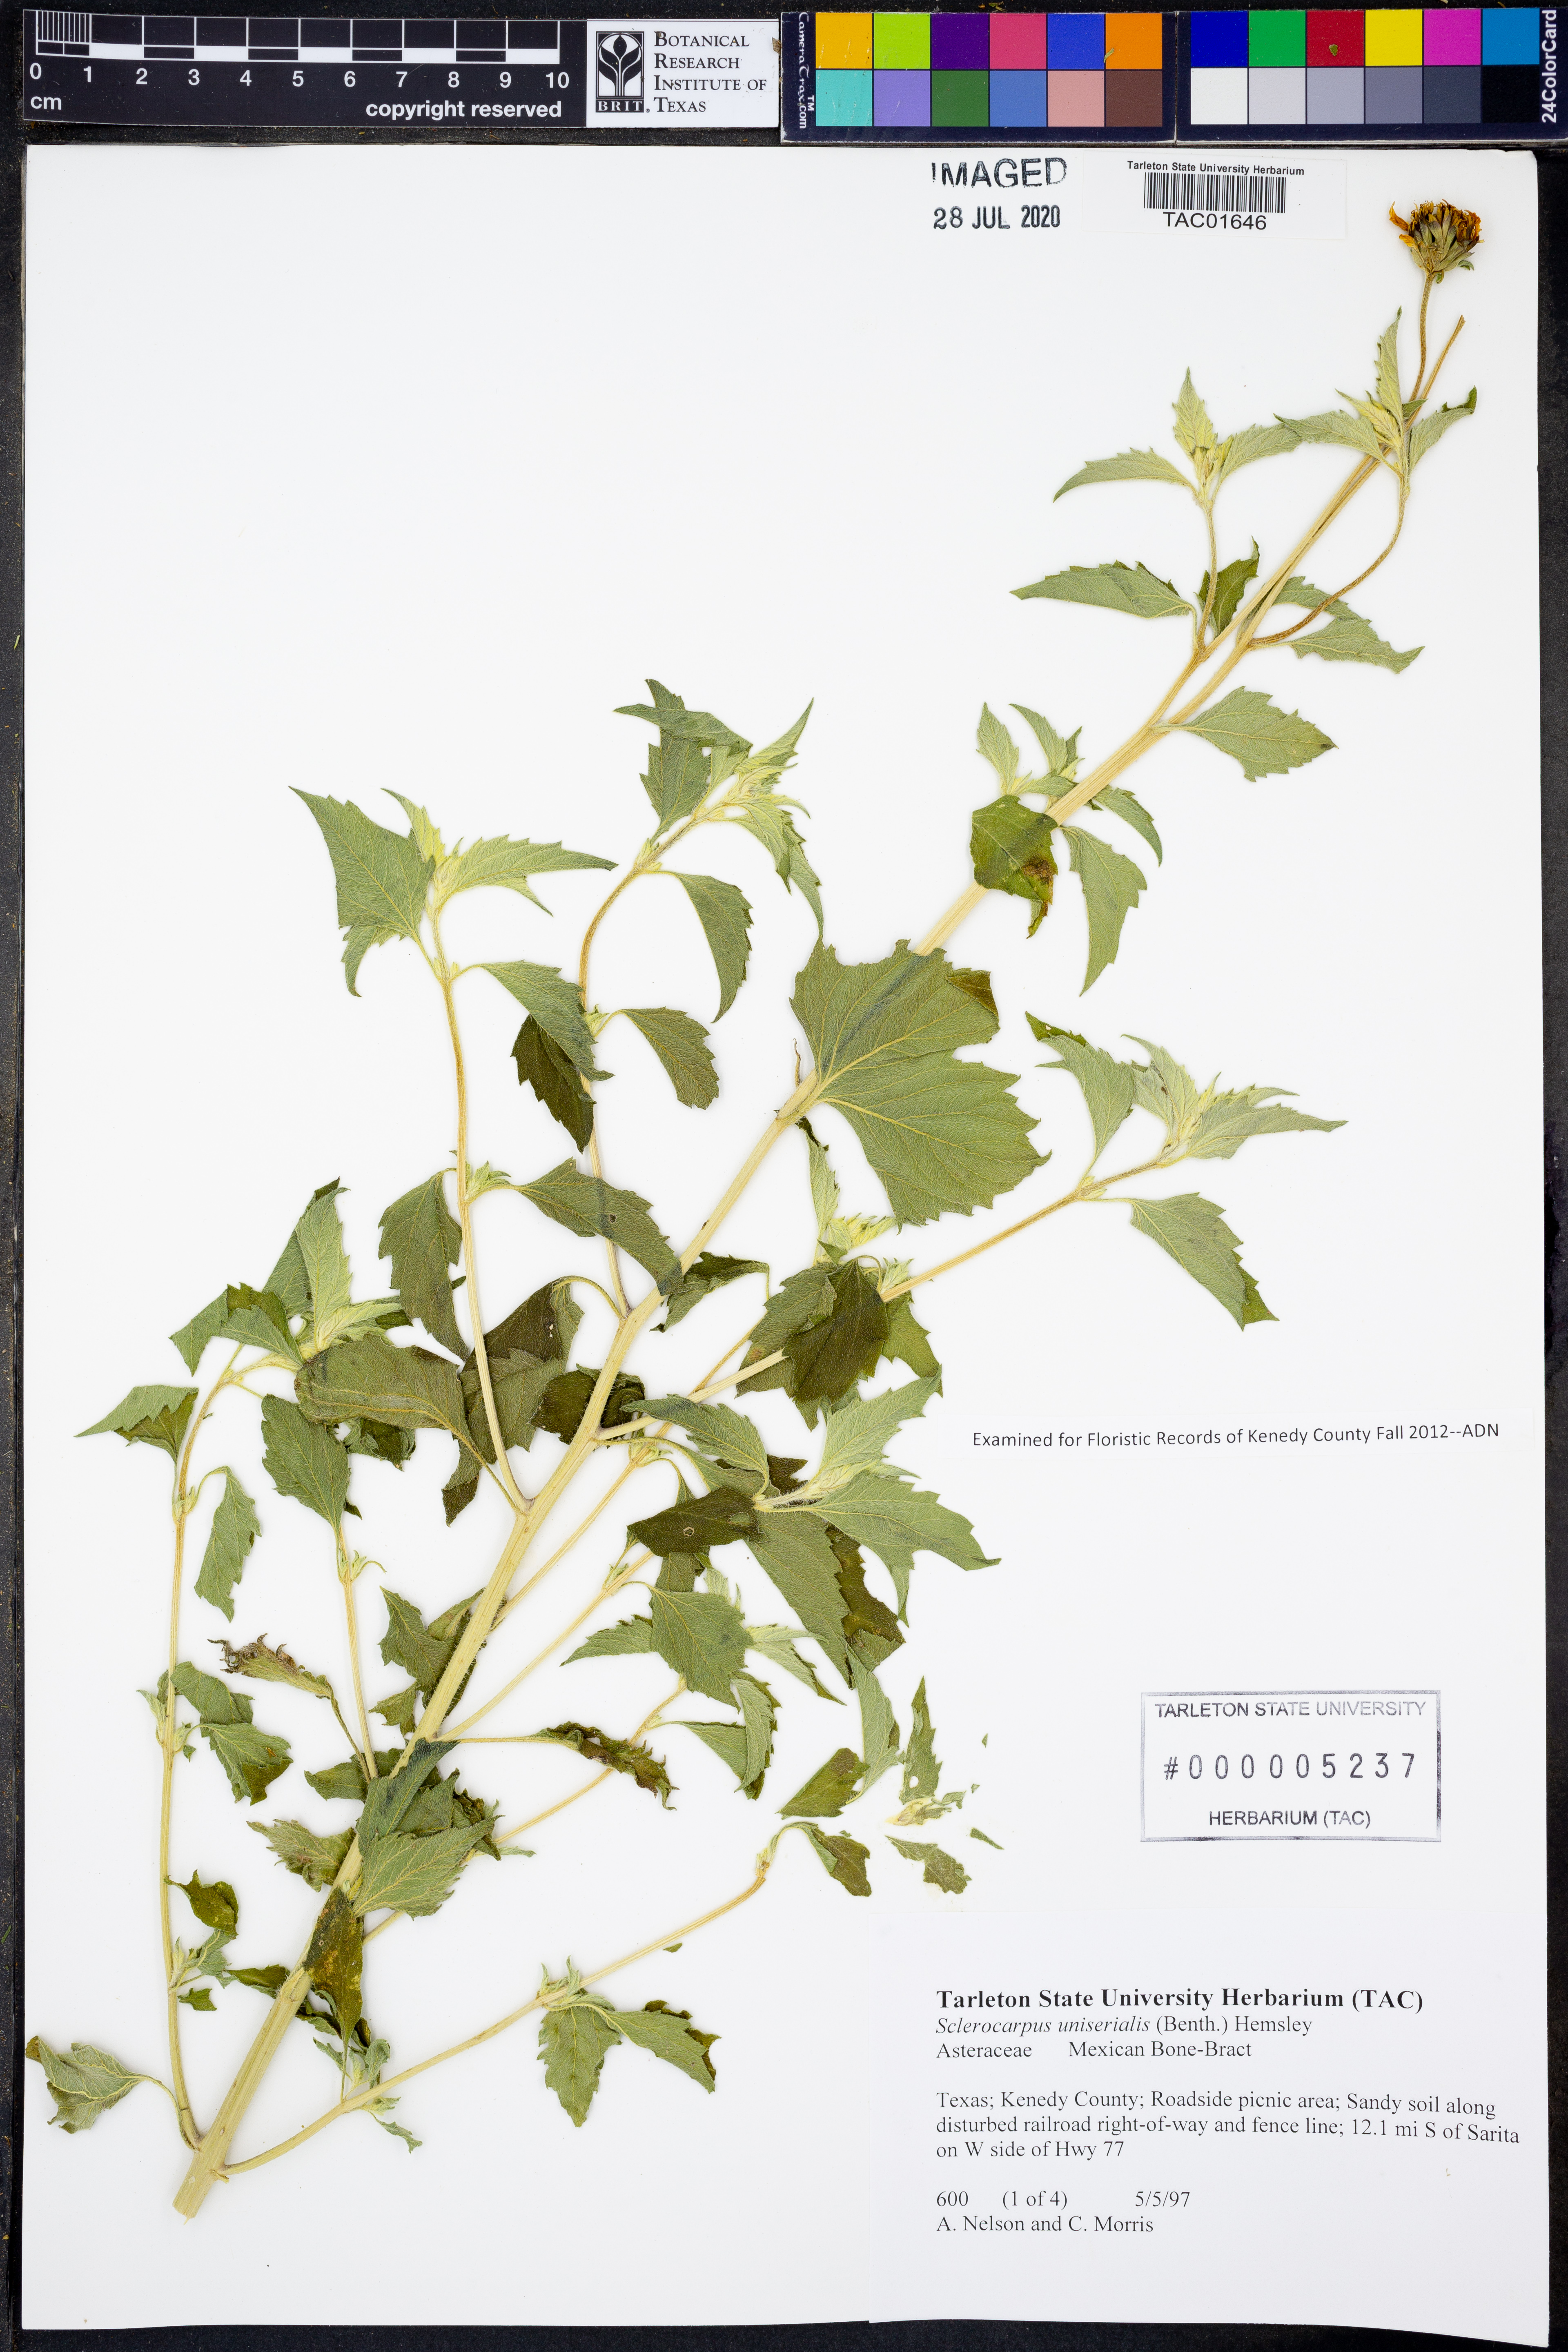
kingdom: Plantae
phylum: Tracheophyta
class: Magnoliopsida
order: Asterales
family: Asteraceae
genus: Sclerocarpus
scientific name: Sclerocarpus uniserialis
